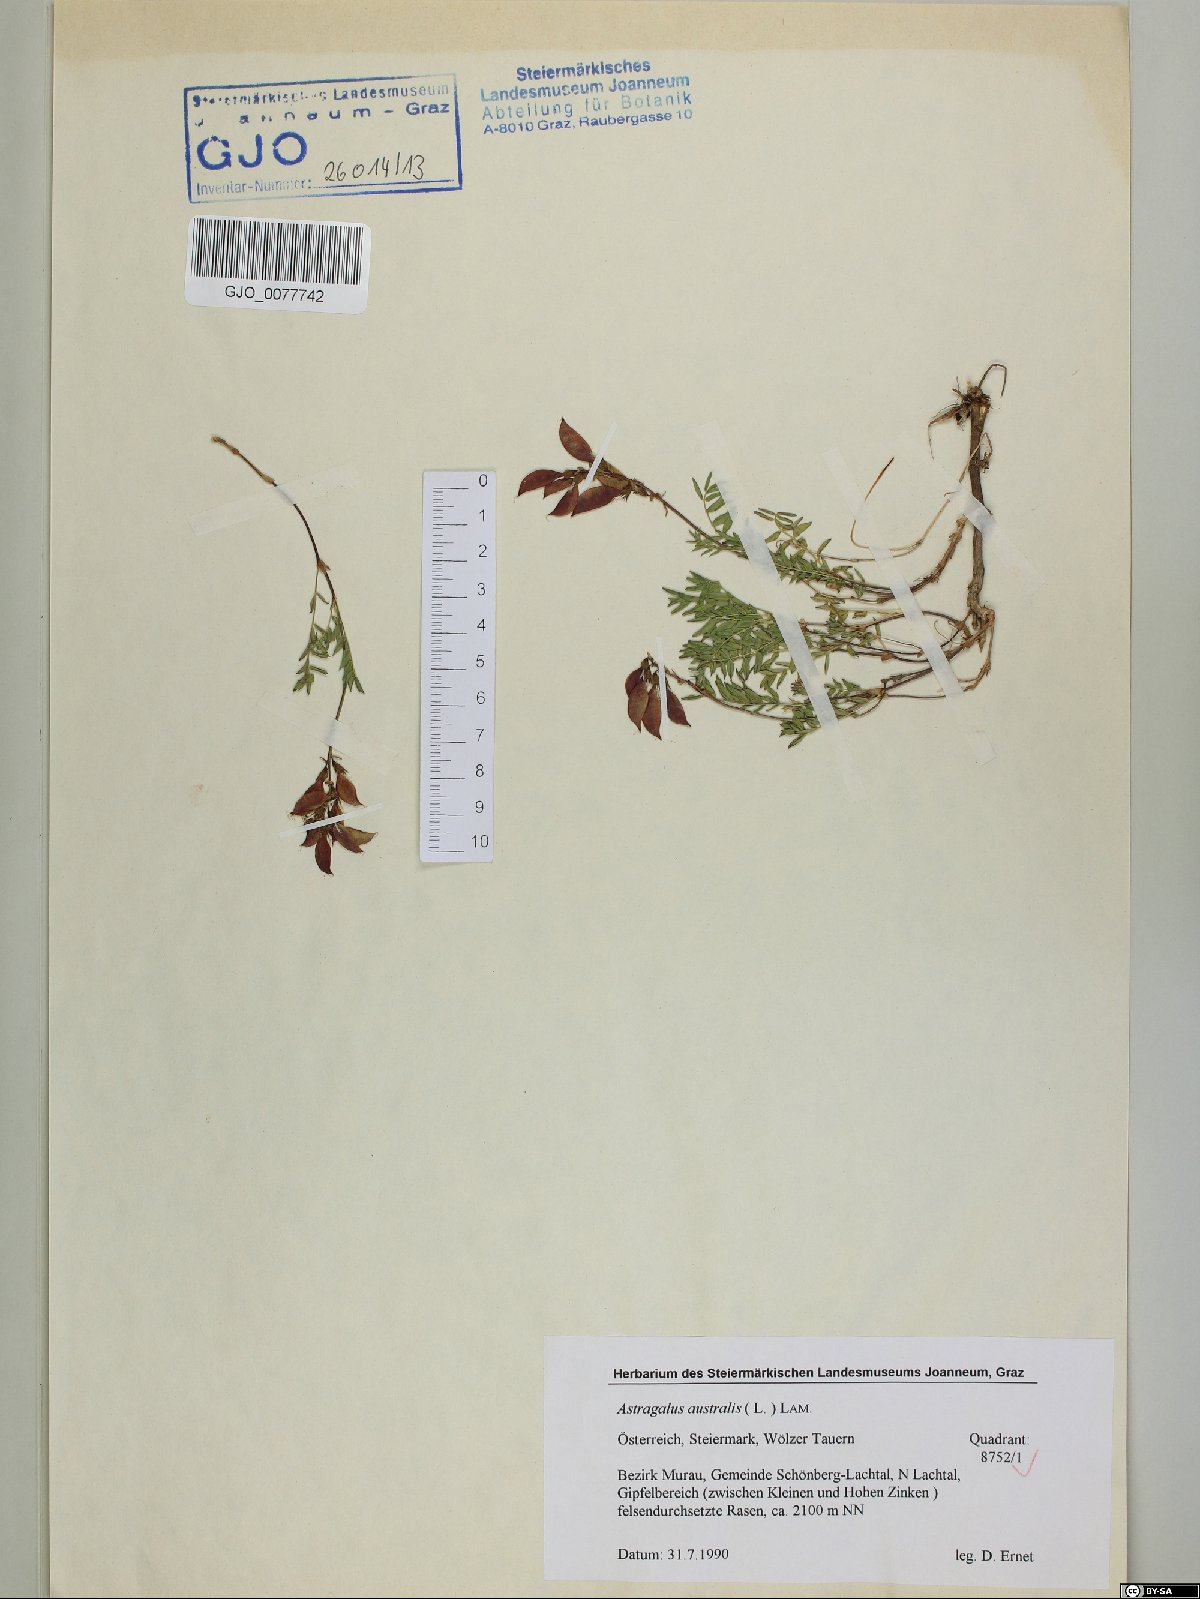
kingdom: Plantae
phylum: Tracheophyta
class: Magnoliopsida
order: Fabales
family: Fabaceae
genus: Astragalus
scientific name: Astragalus australis
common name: Indian milk-vetch
